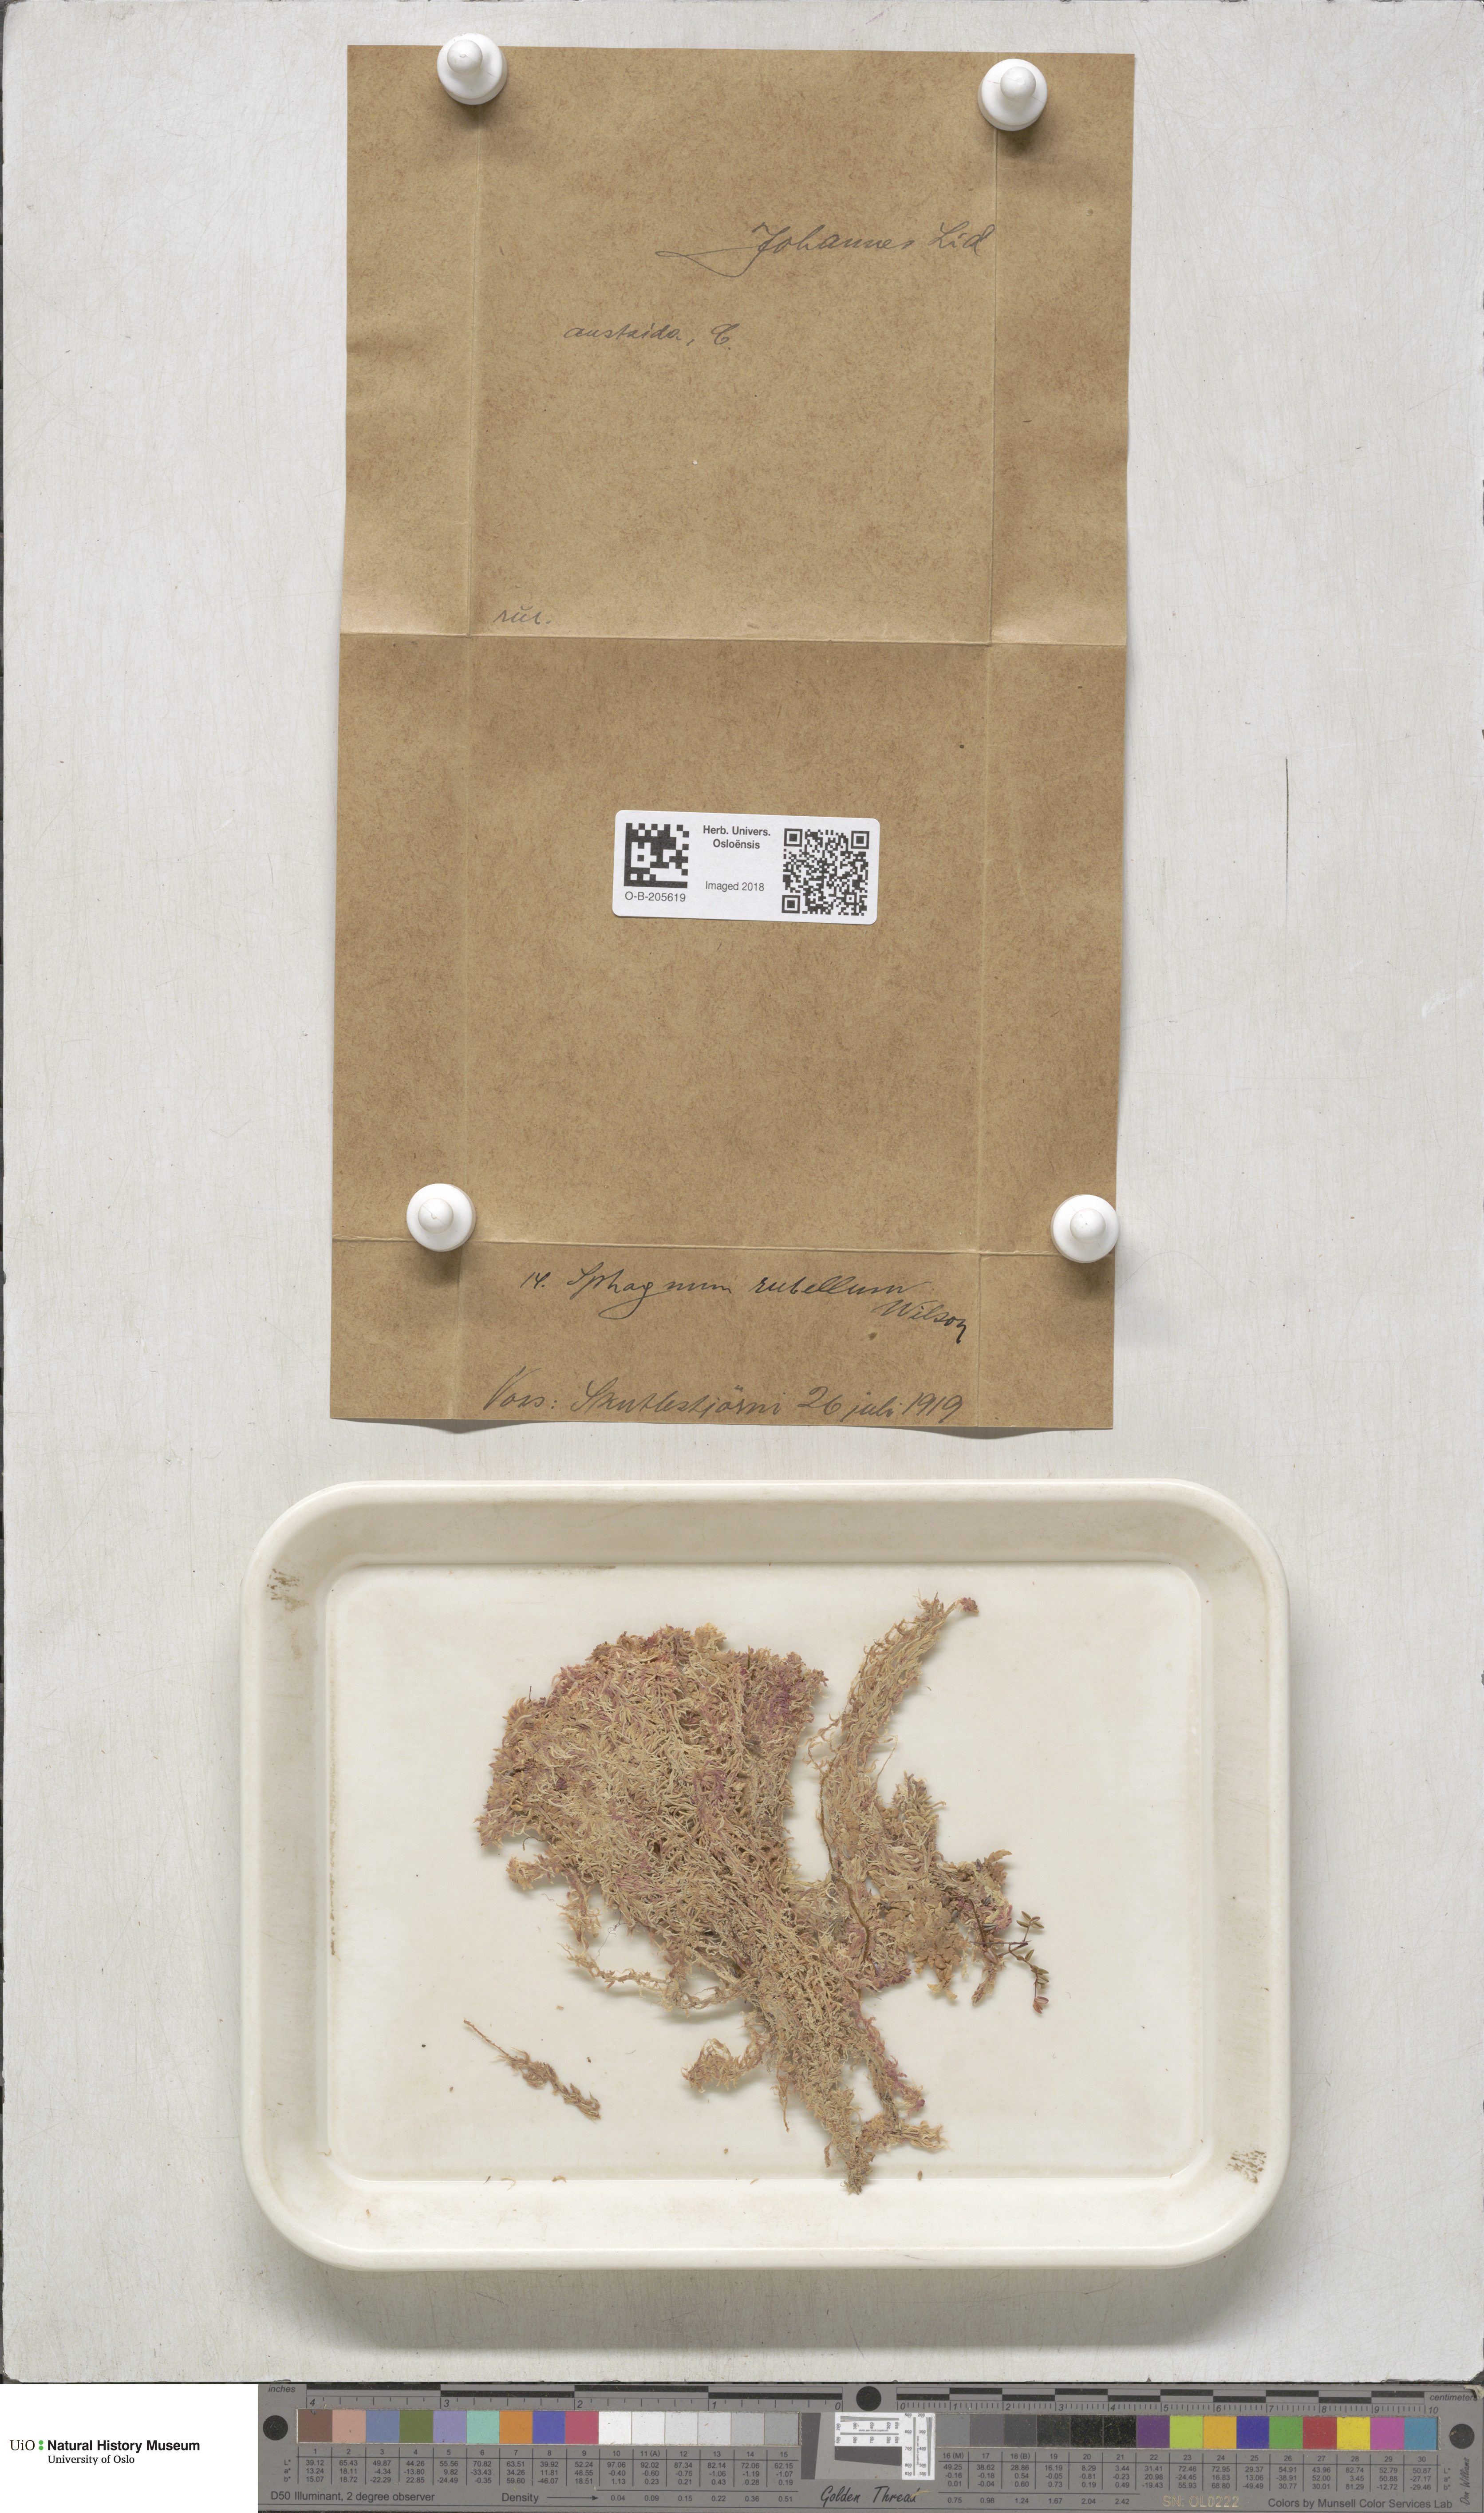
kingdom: Plantae
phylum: Bryophyta
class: Sphagnopsida
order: Sphagnales
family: Sphagnaceae
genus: Sphagnum
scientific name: Sphagnum rubellum
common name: Red peat moss
